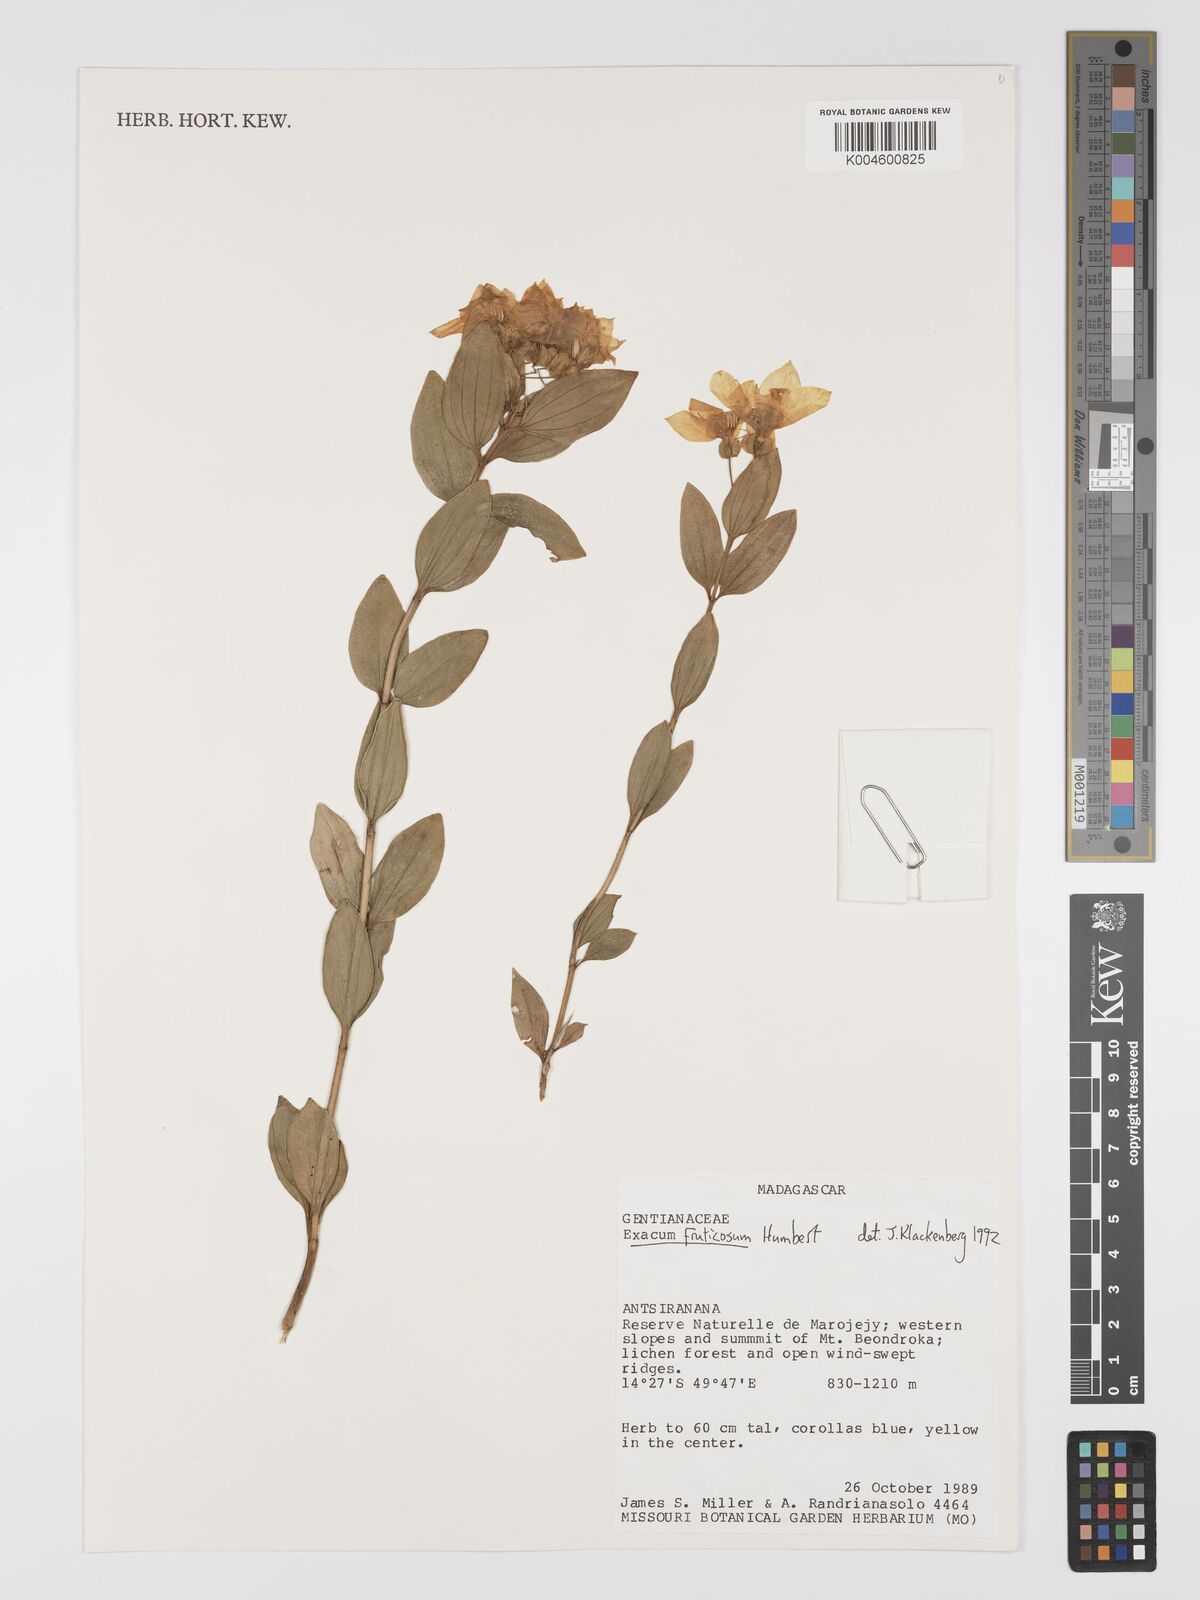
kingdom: Plantae
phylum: Tracheophyta
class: Magnoliopsida
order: Gentianales
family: Gentianaceae
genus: Exacum
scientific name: Exacum fruticosum
